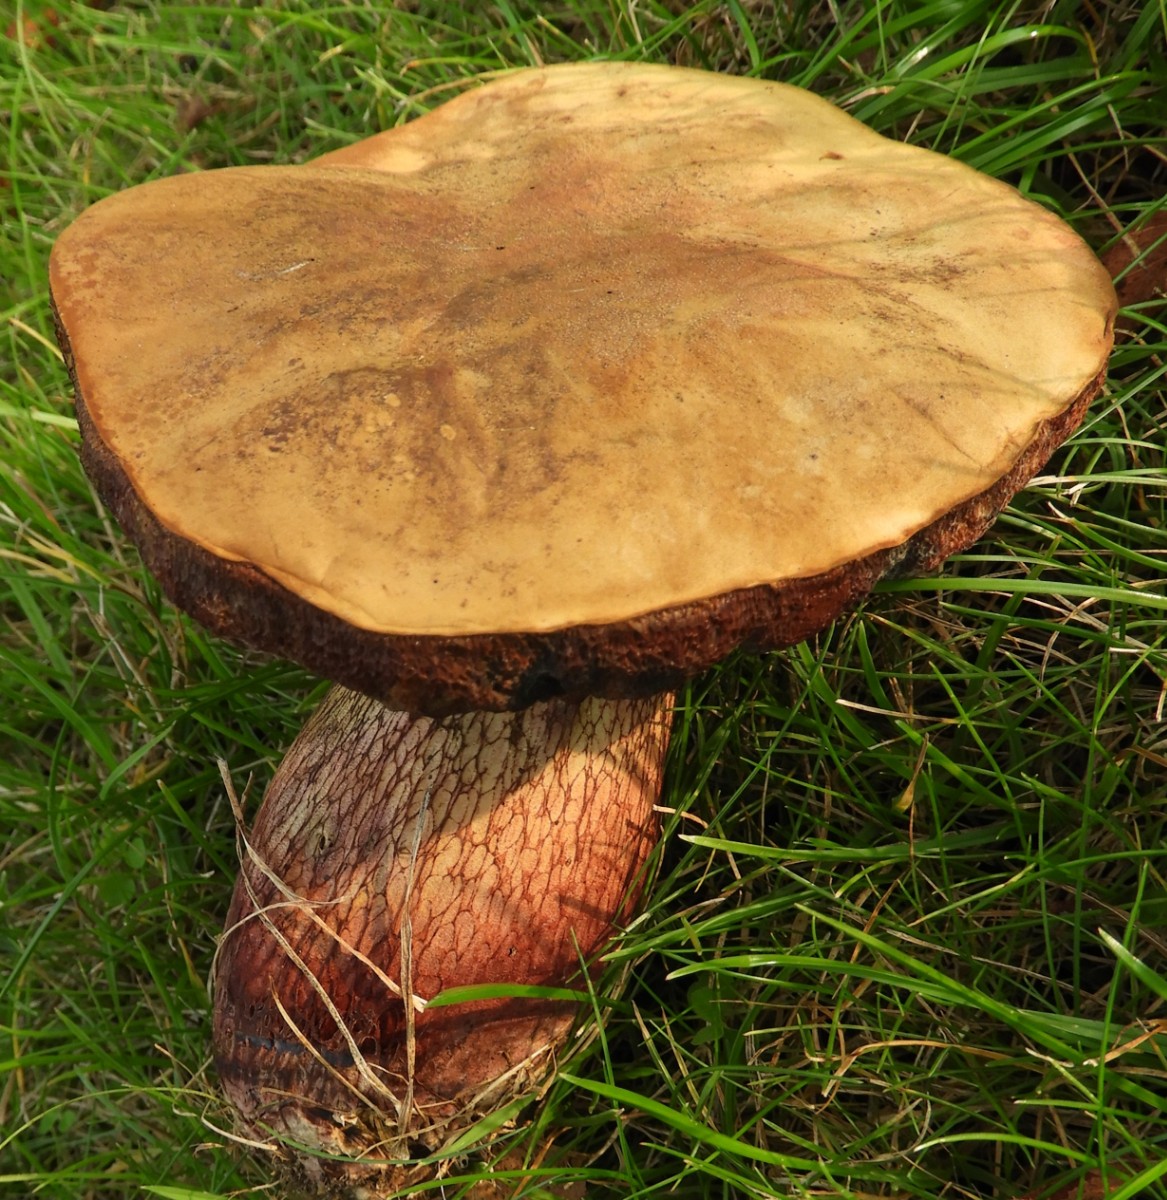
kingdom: Fungi
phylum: Basidiomycota
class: Agaricomycetes
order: Boletales
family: Boletaceae
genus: Suillellus
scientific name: Suillellus luridus
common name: netstokket indigorørhat
